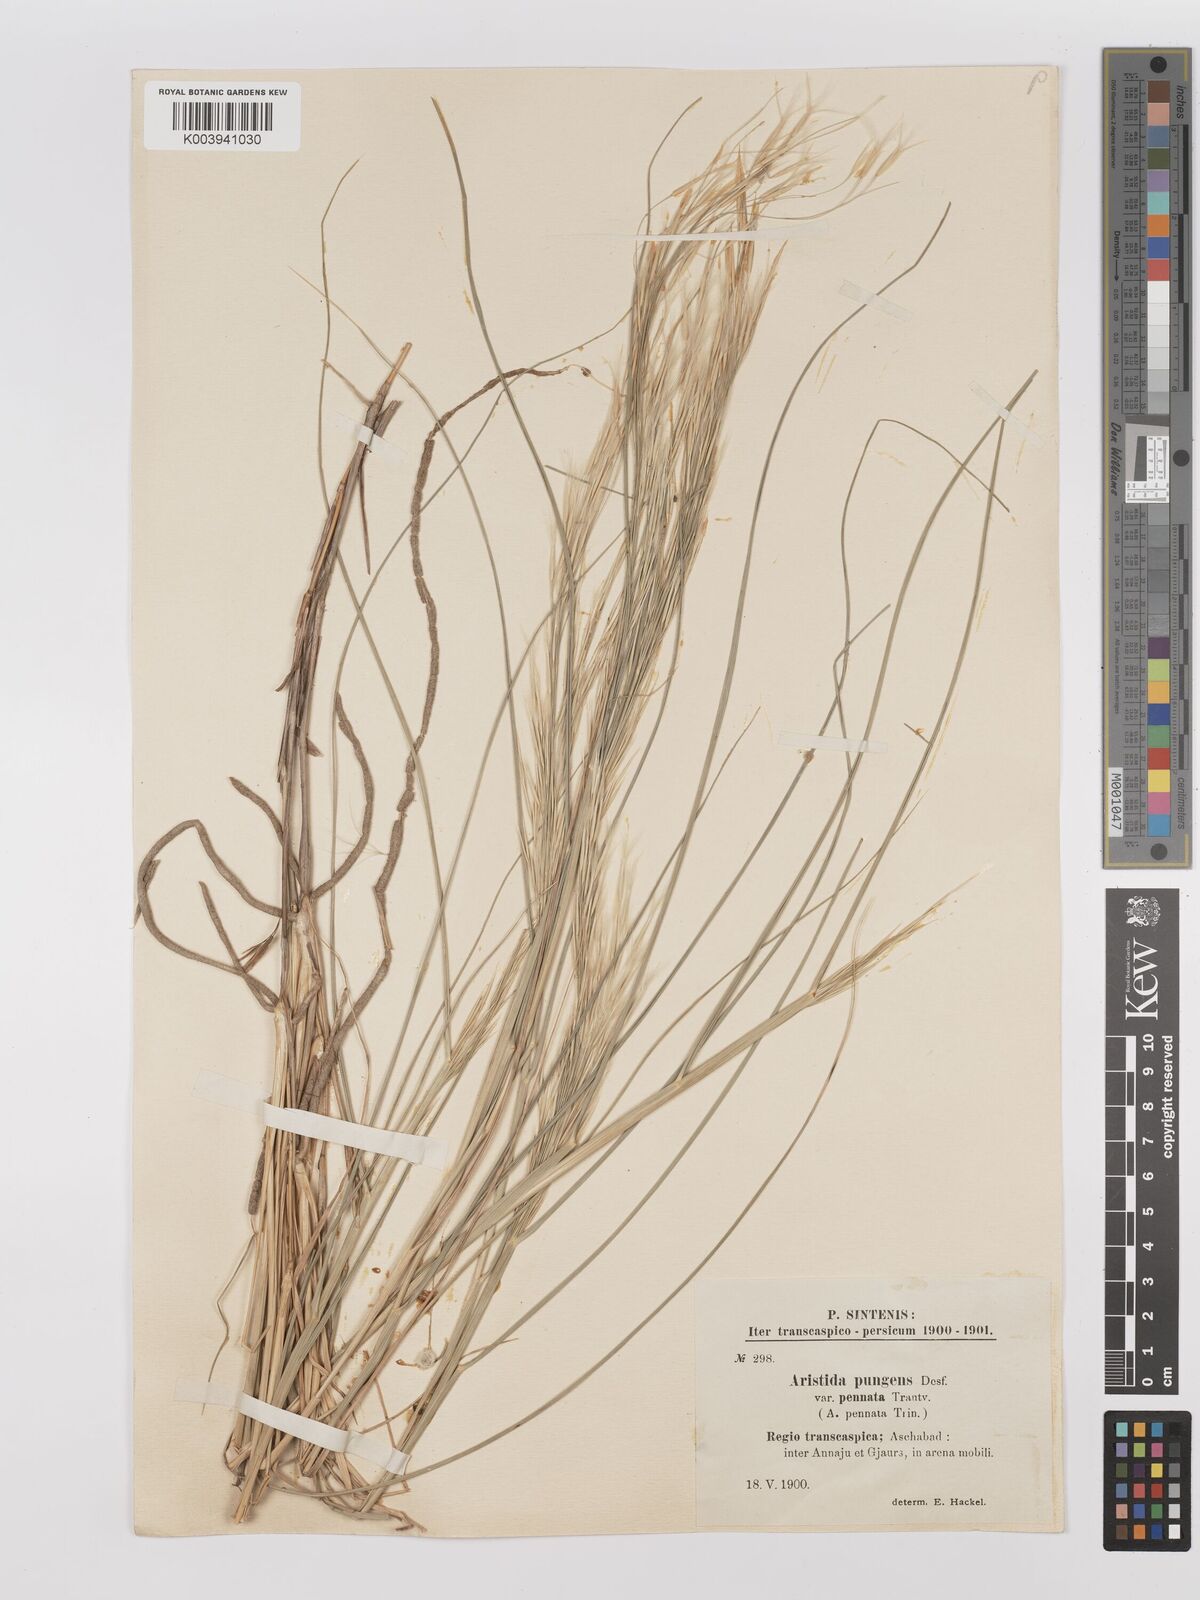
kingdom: Plantae
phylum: Tracheophyta
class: Liliopsida
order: Poales
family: Poaceae
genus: Stipagrostis
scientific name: Stipagrostis pungens
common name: Three-awn grass
